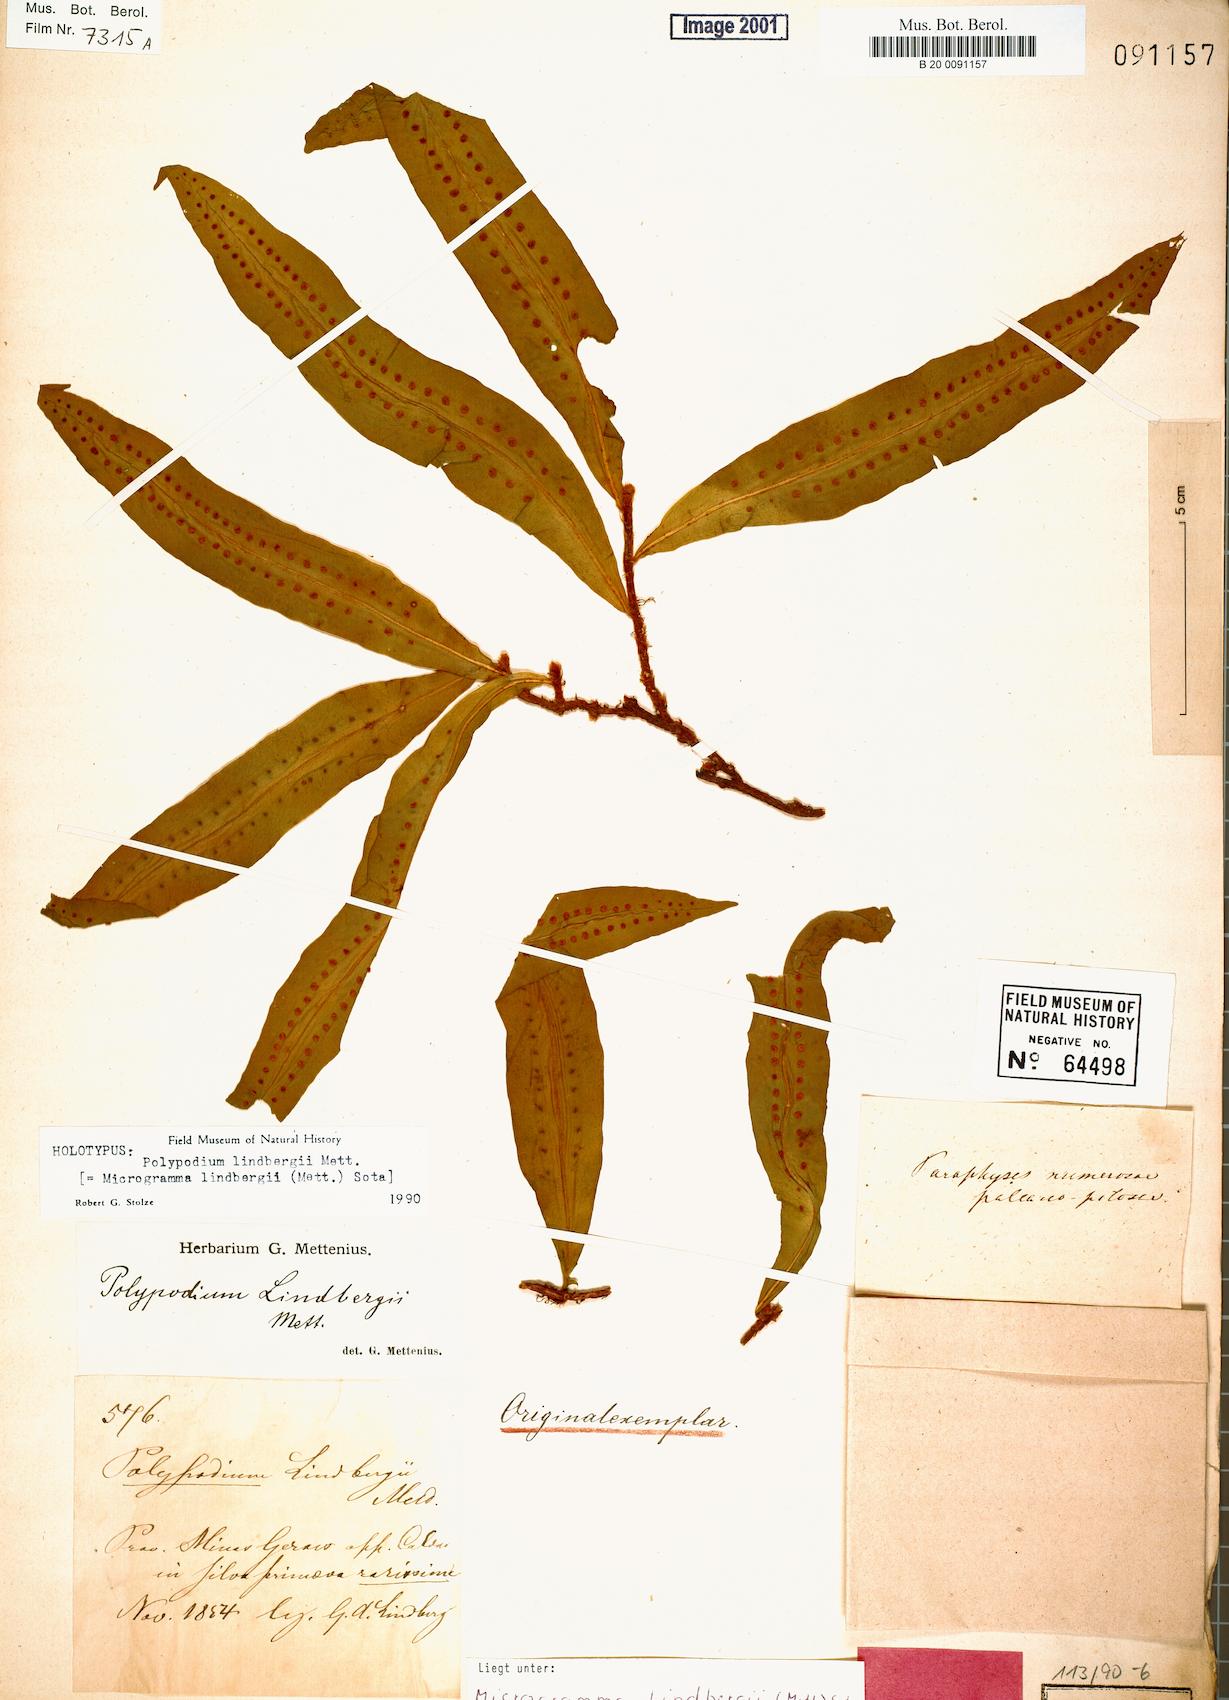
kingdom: Plantae
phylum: Tracheophyta
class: Polypodiopsida
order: Polypodiales
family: Polypodiaceae
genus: Microgramma
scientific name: Microgramma lindbergii
